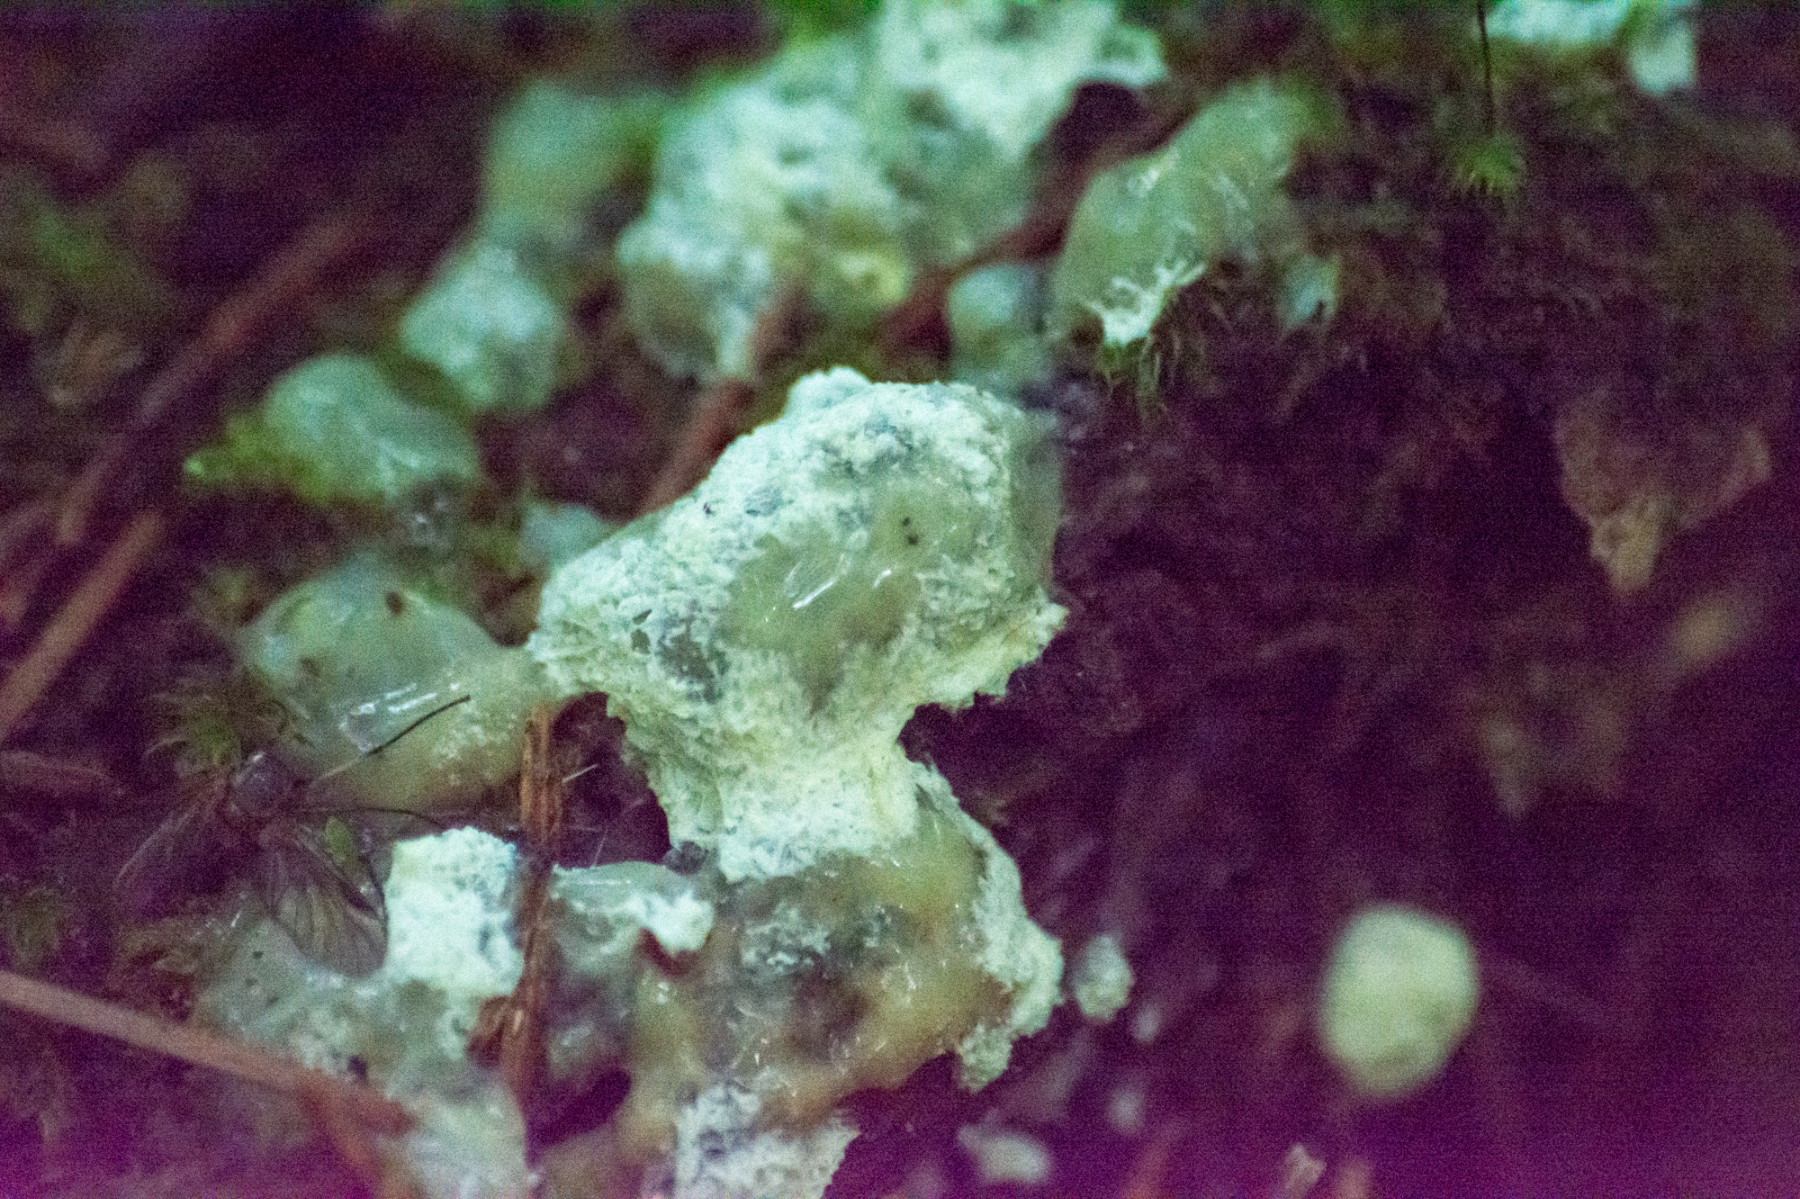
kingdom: Protozoa
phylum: Mycetozoa
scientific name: Mycetozoa
